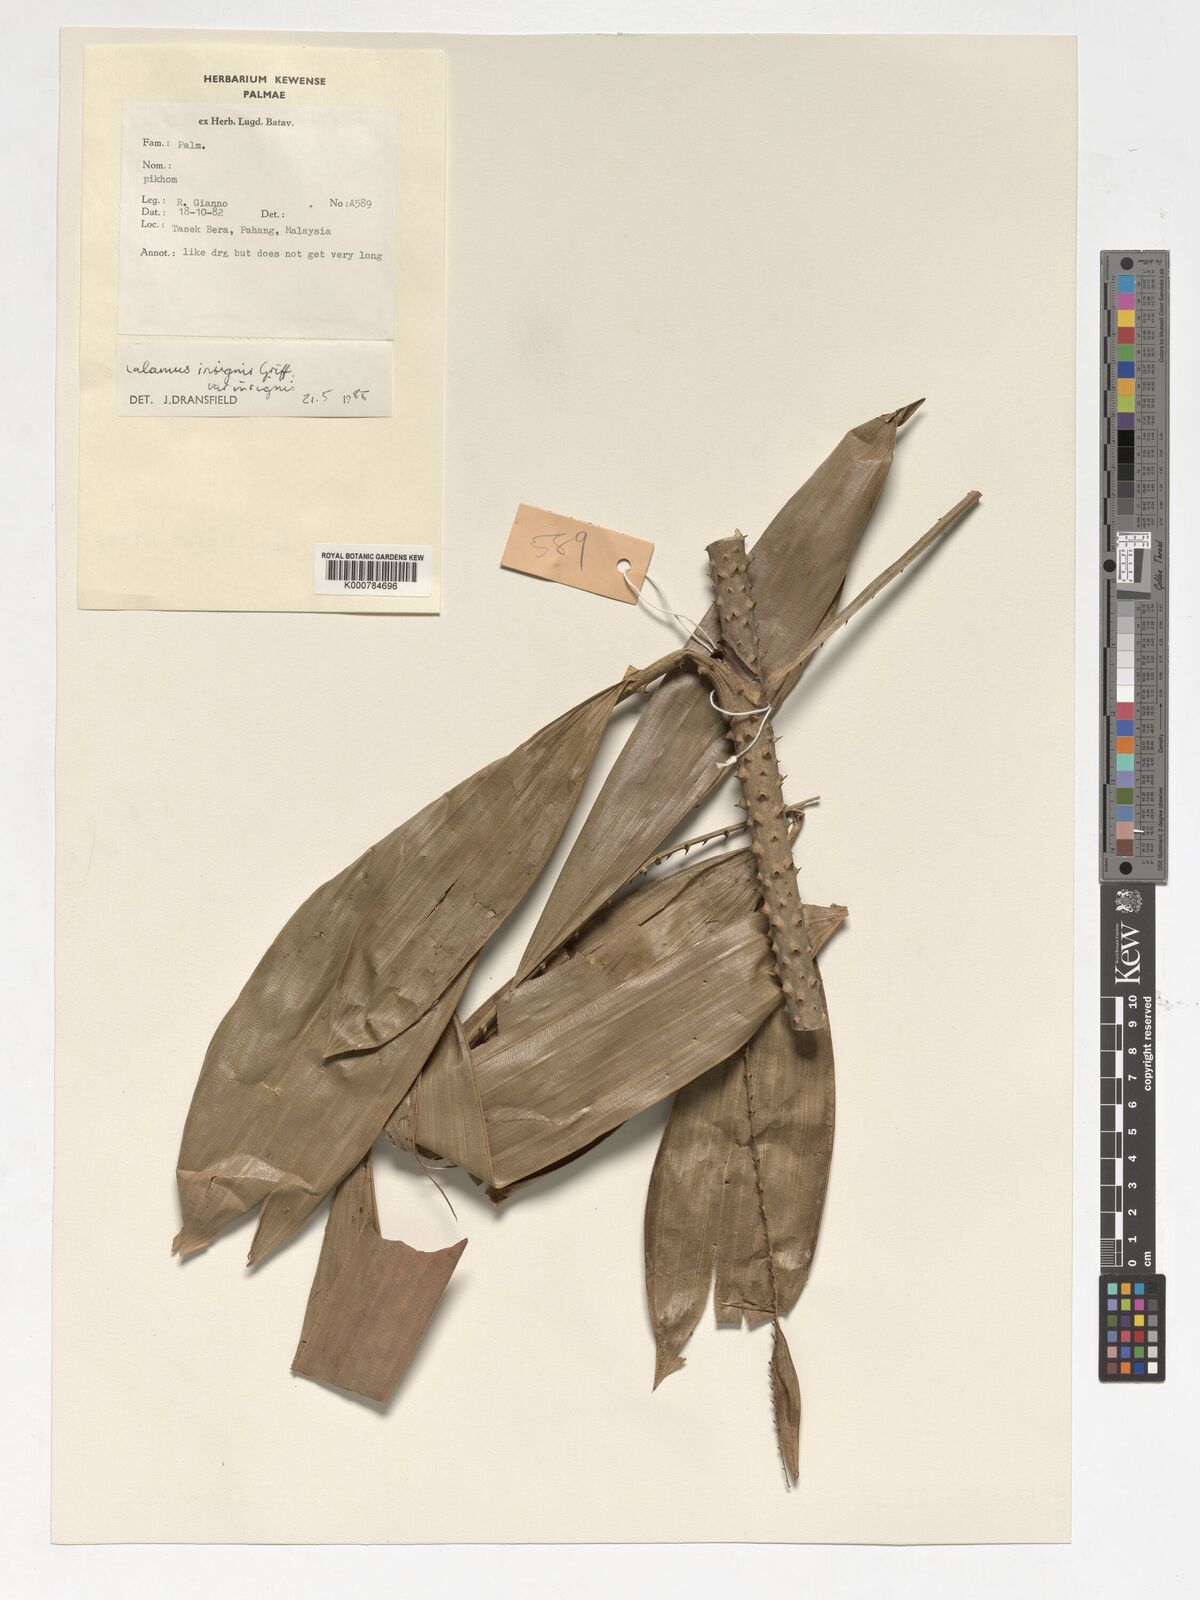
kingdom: Plantae
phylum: Tracheophyta
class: Liliopsida
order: Arecales
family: Arecaceae
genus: Calamus
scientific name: Calamus insignis
